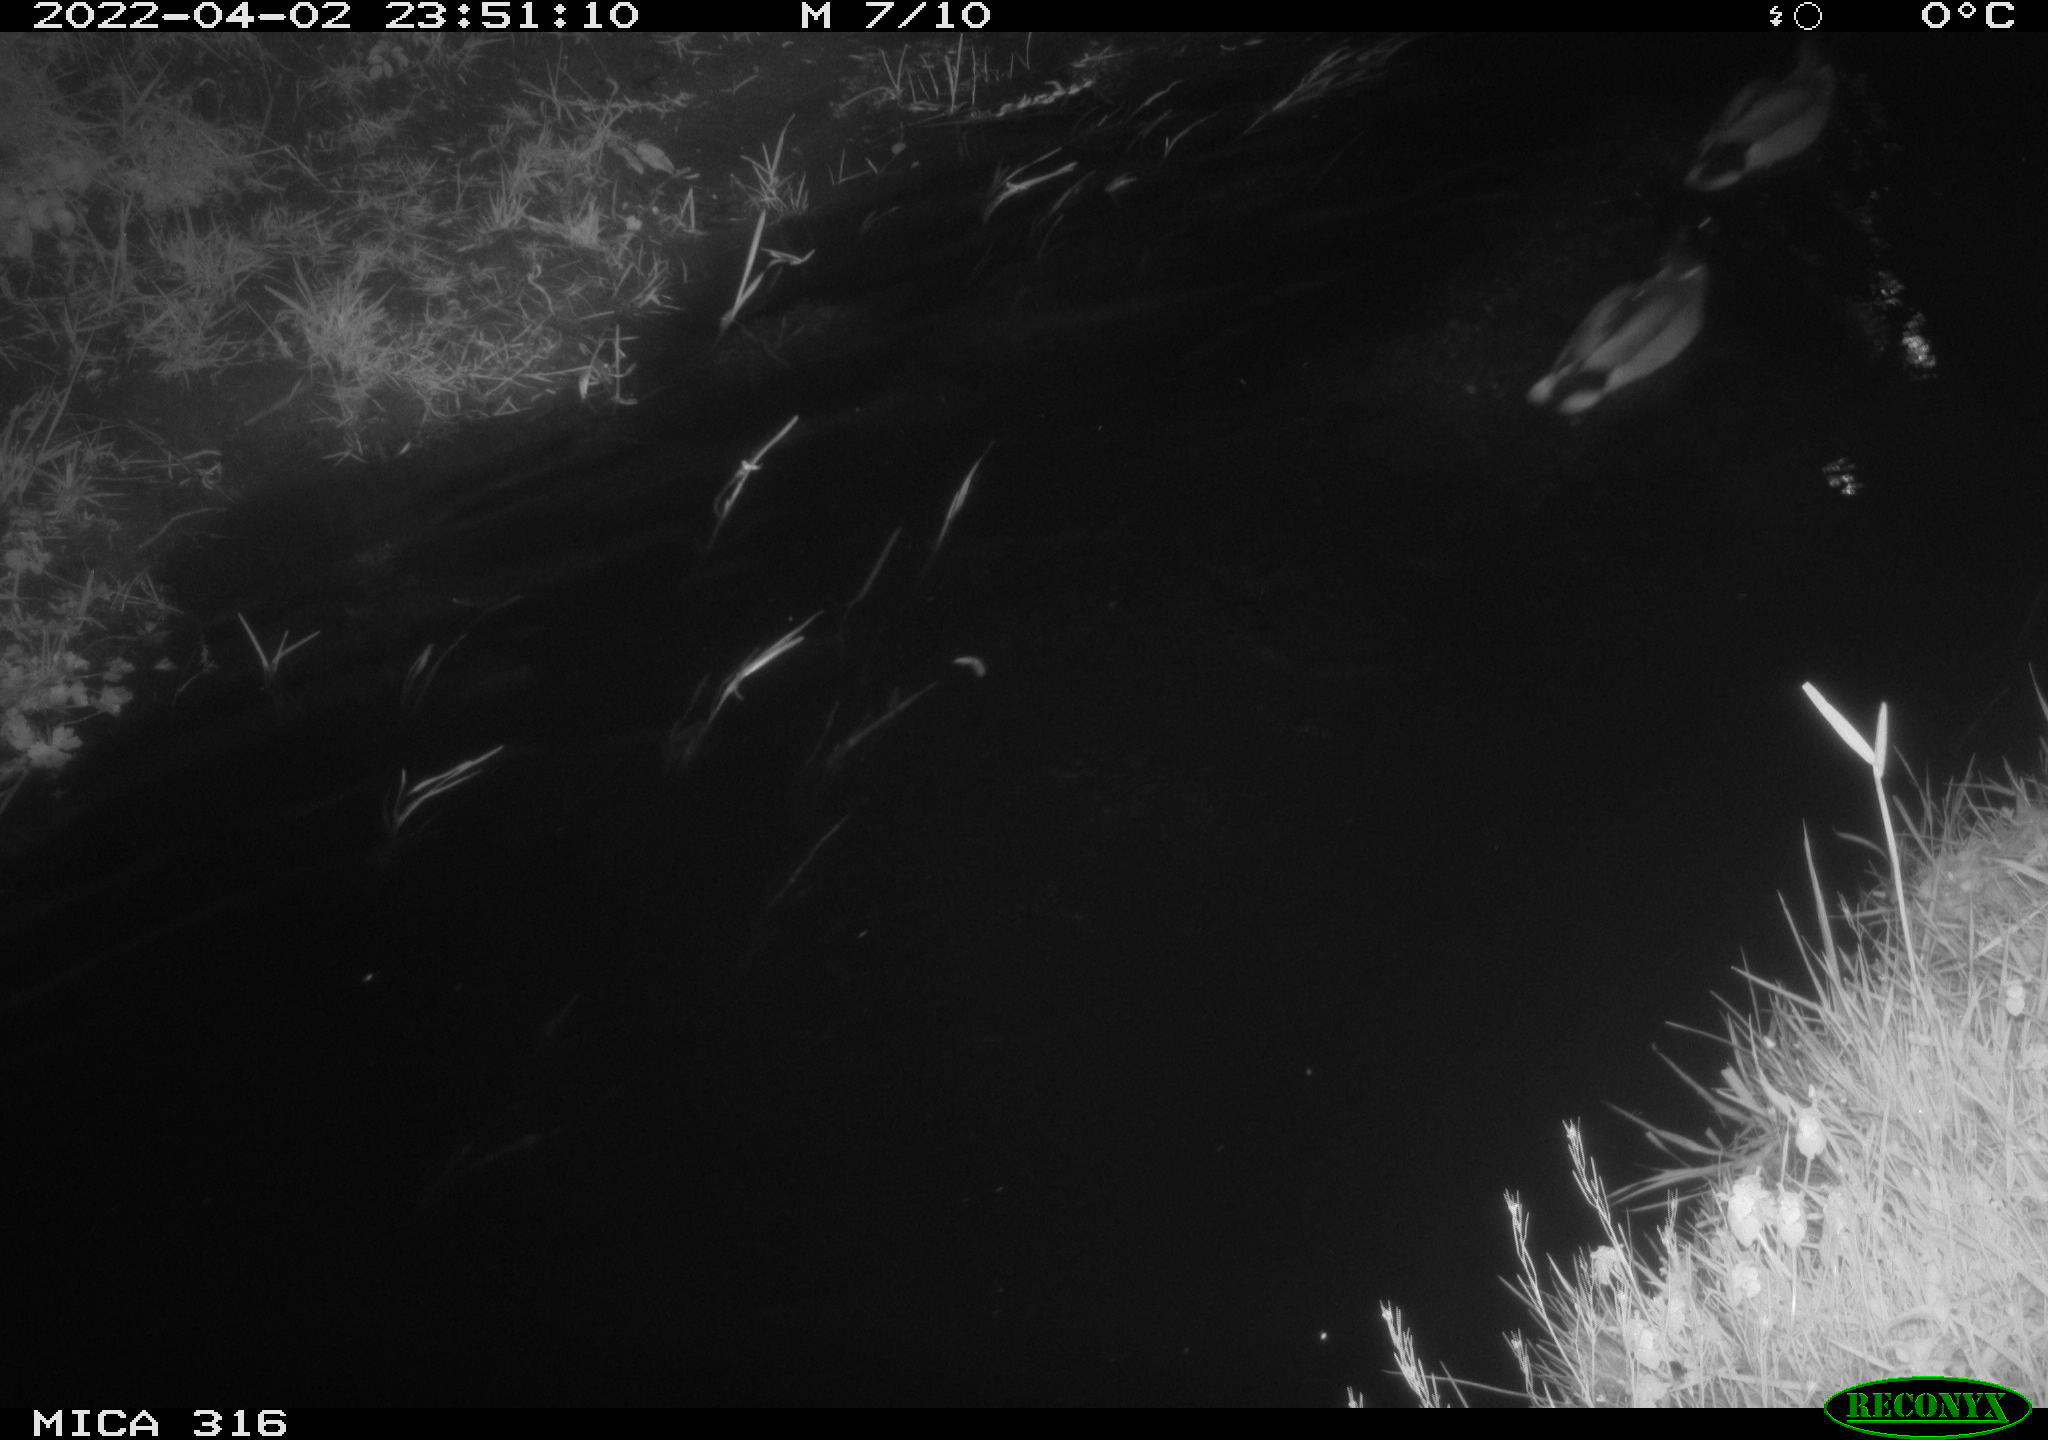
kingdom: Animalia
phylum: Chordata
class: Aves
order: Anseriformes
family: Anatidae
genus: Anas
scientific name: Anas platyrhynchos
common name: Mallard
